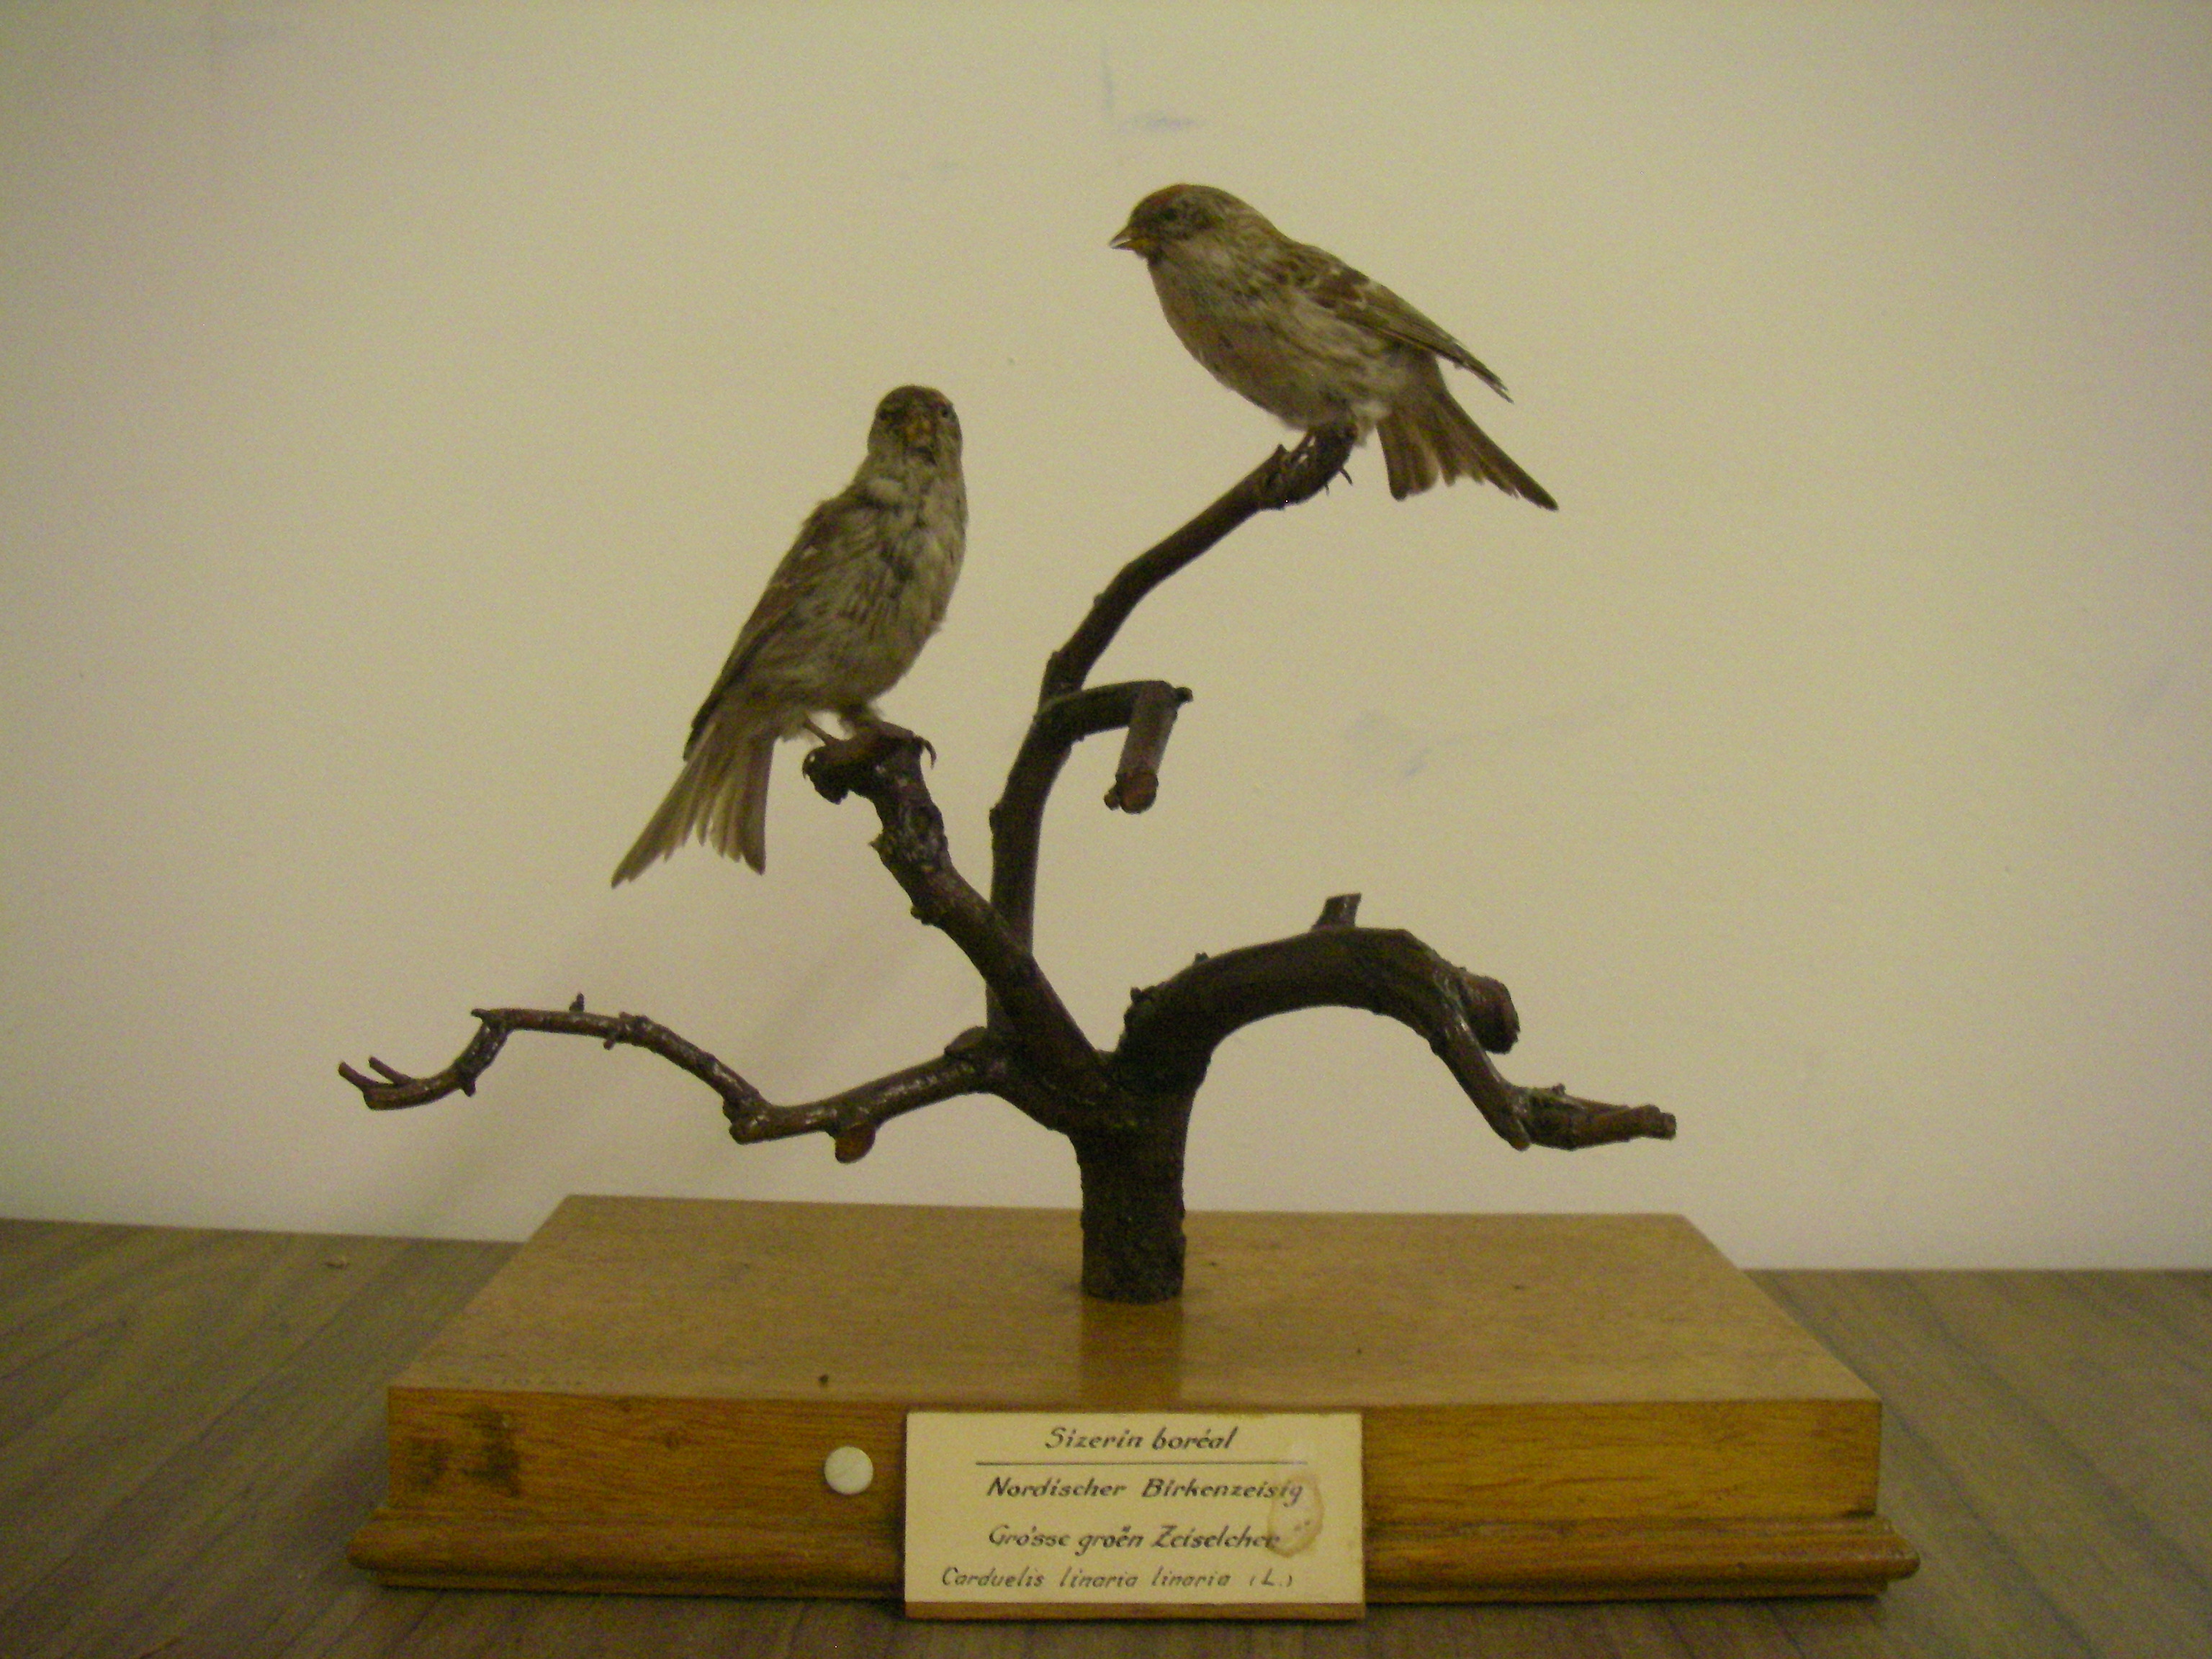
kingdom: Animalia
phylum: Chordata
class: Aves
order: Passeriformes
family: Fringillidae
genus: Acanthis
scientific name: Acanthis flammea
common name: Common redpoll
